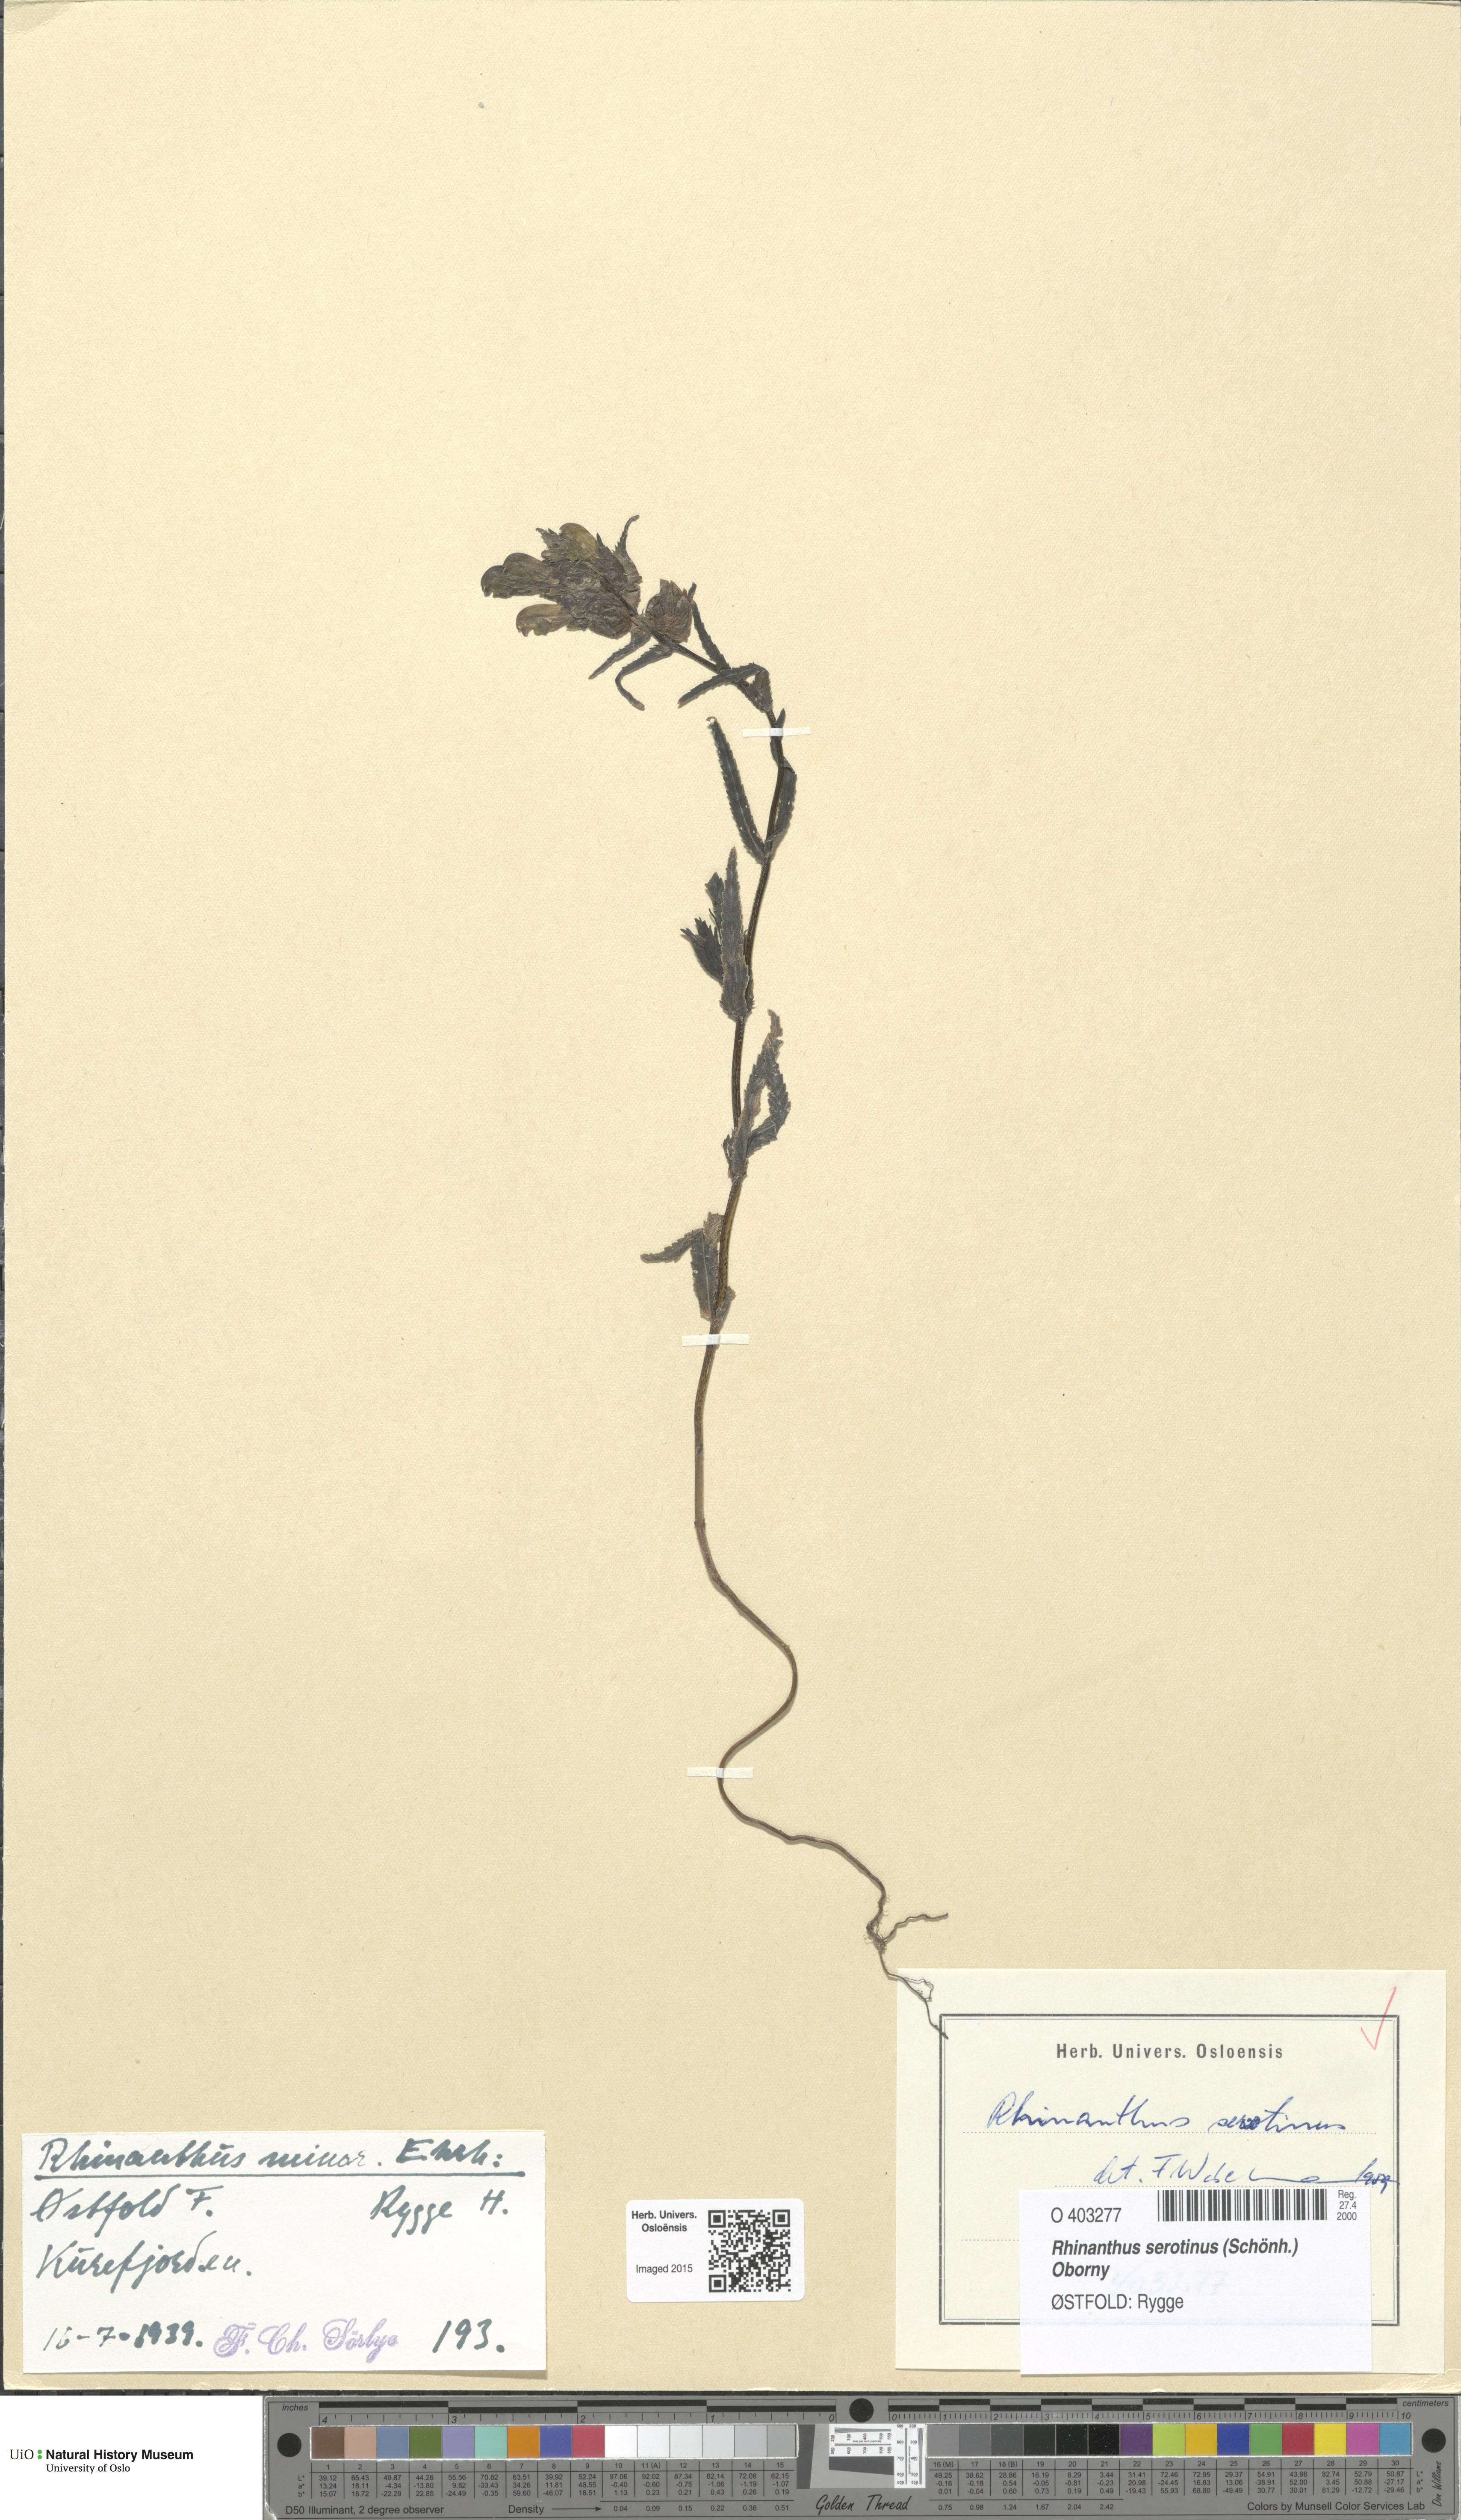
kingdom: Plantae
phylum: Tracheophyta
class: Magnoliopsida
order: Lamiales
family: Orobanchaceae
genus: Rhinanthus
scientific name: Rhinanthus
